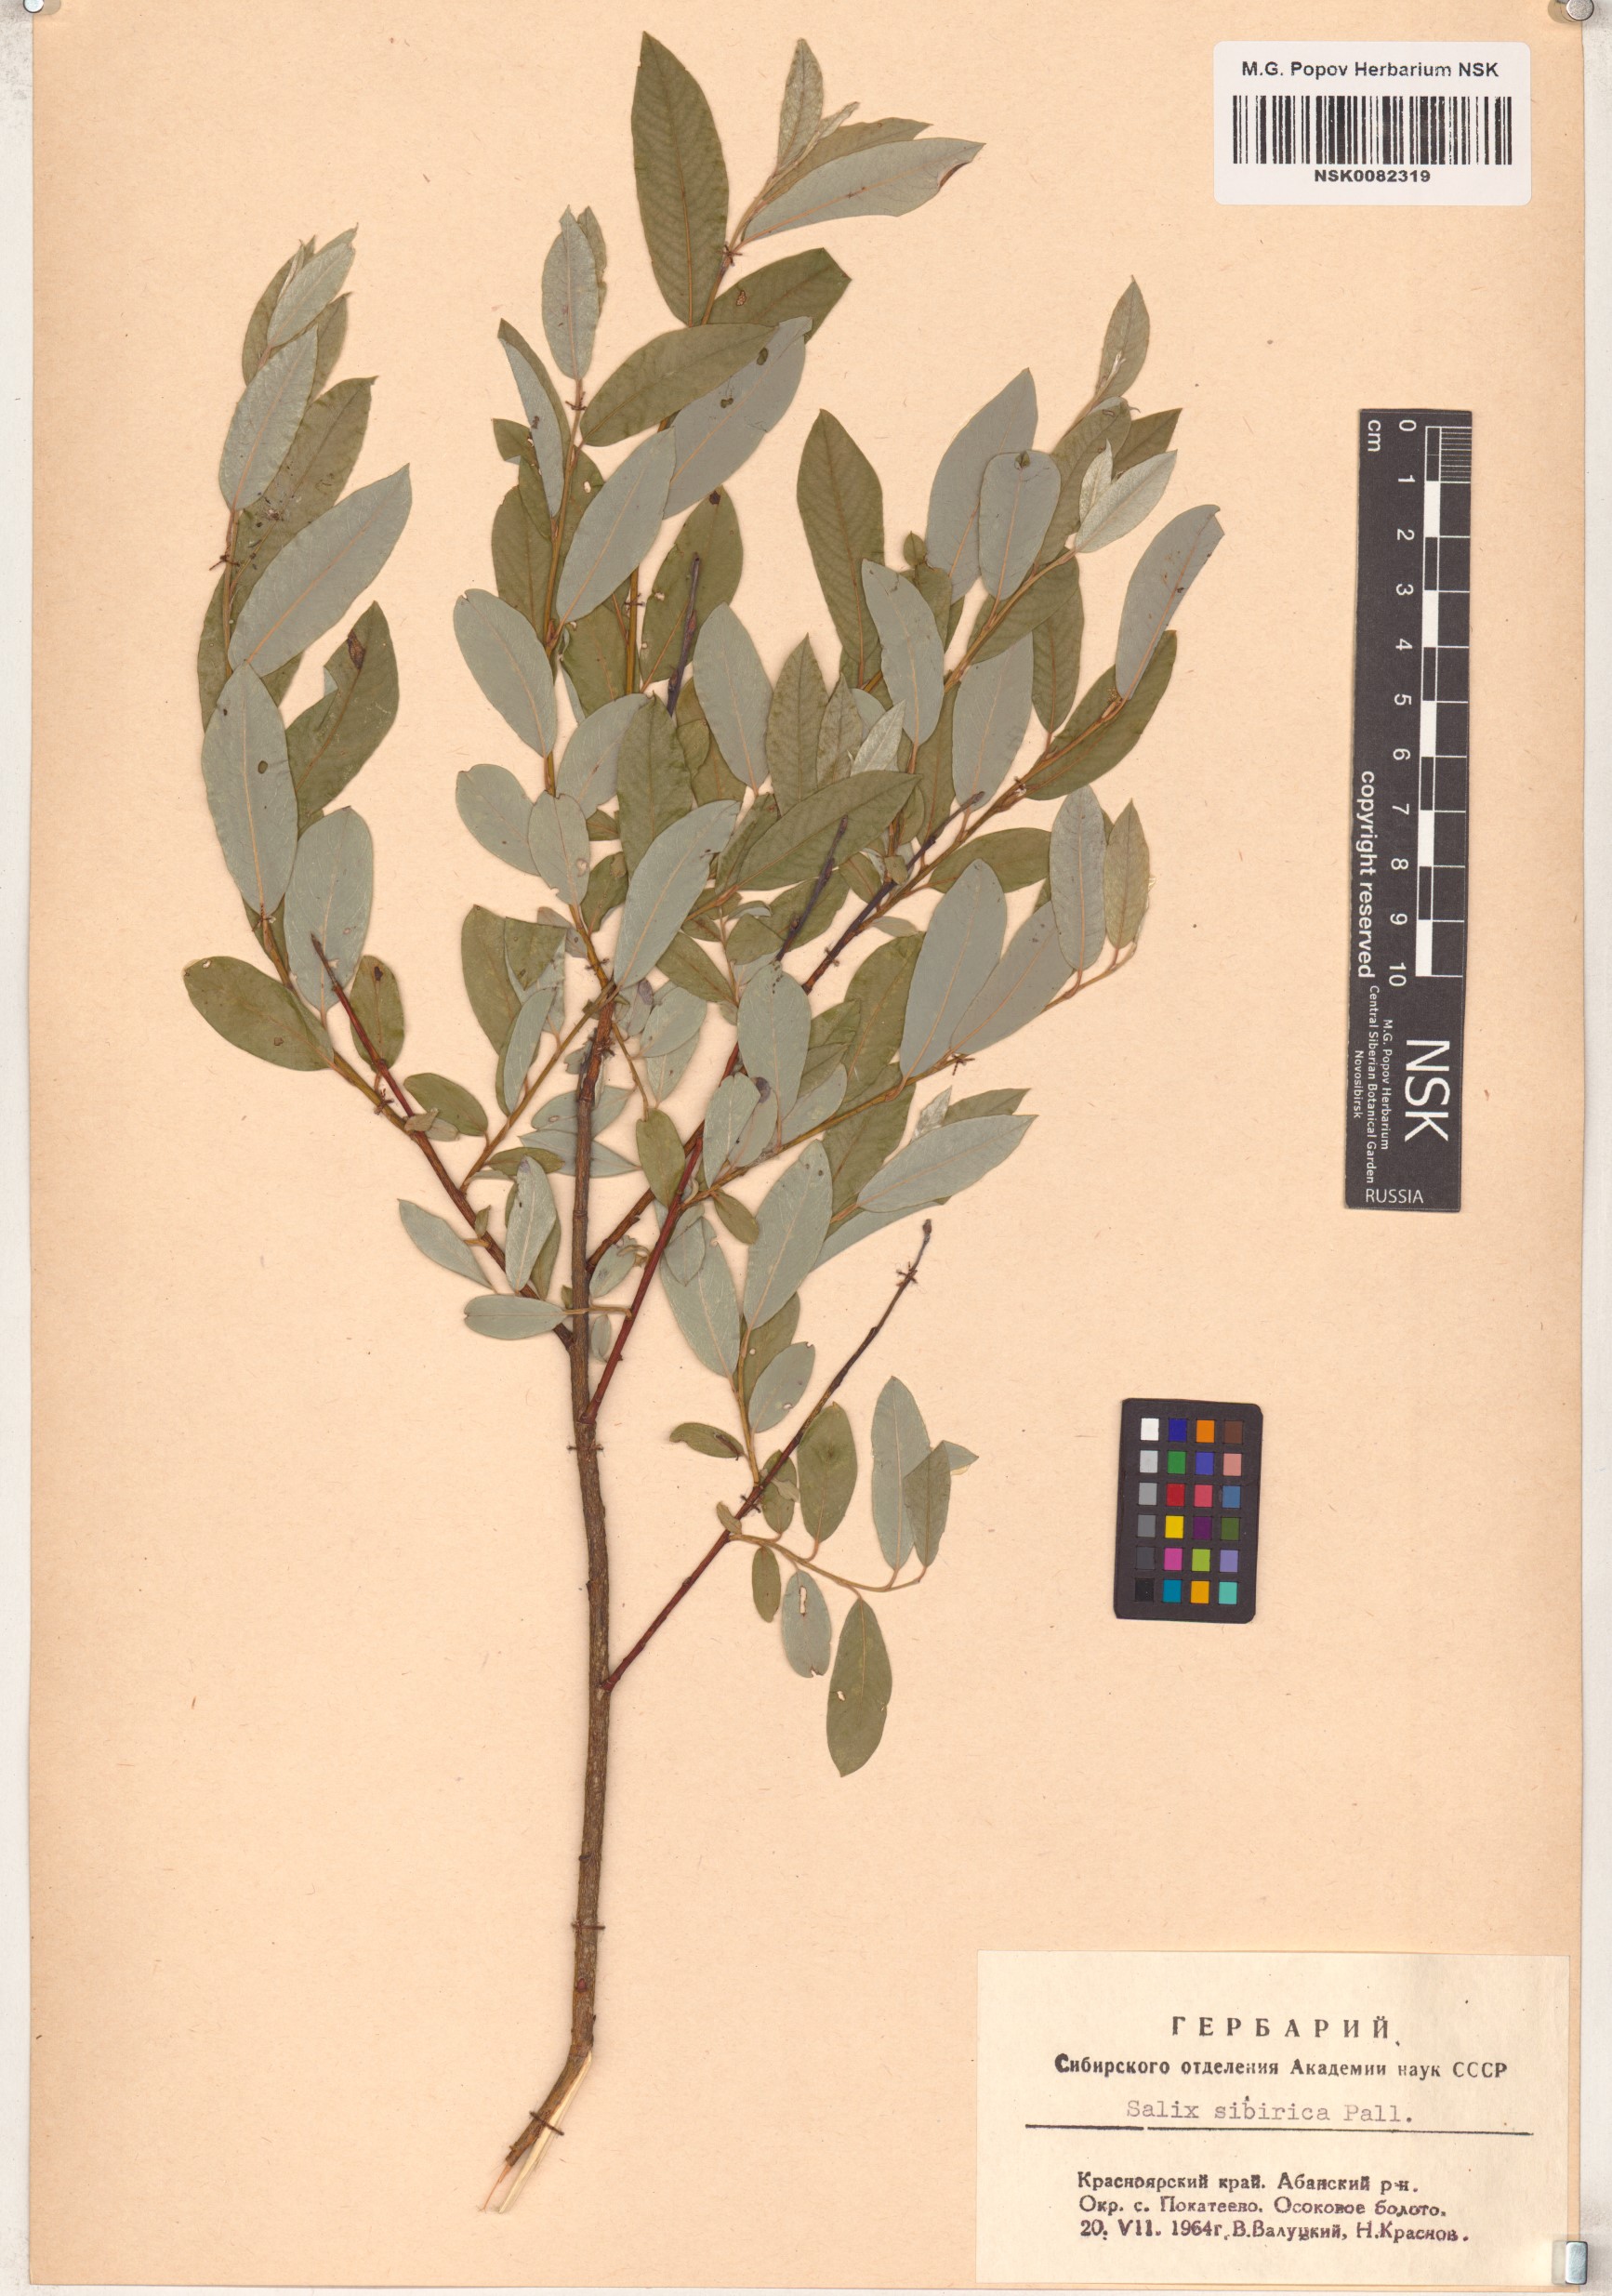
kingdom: Plantae
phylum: Tracheophyta
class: Magnoliopsida
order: Malpighiales
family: Salicaceae
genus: Salix
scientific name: Salix rosmarinifolia
